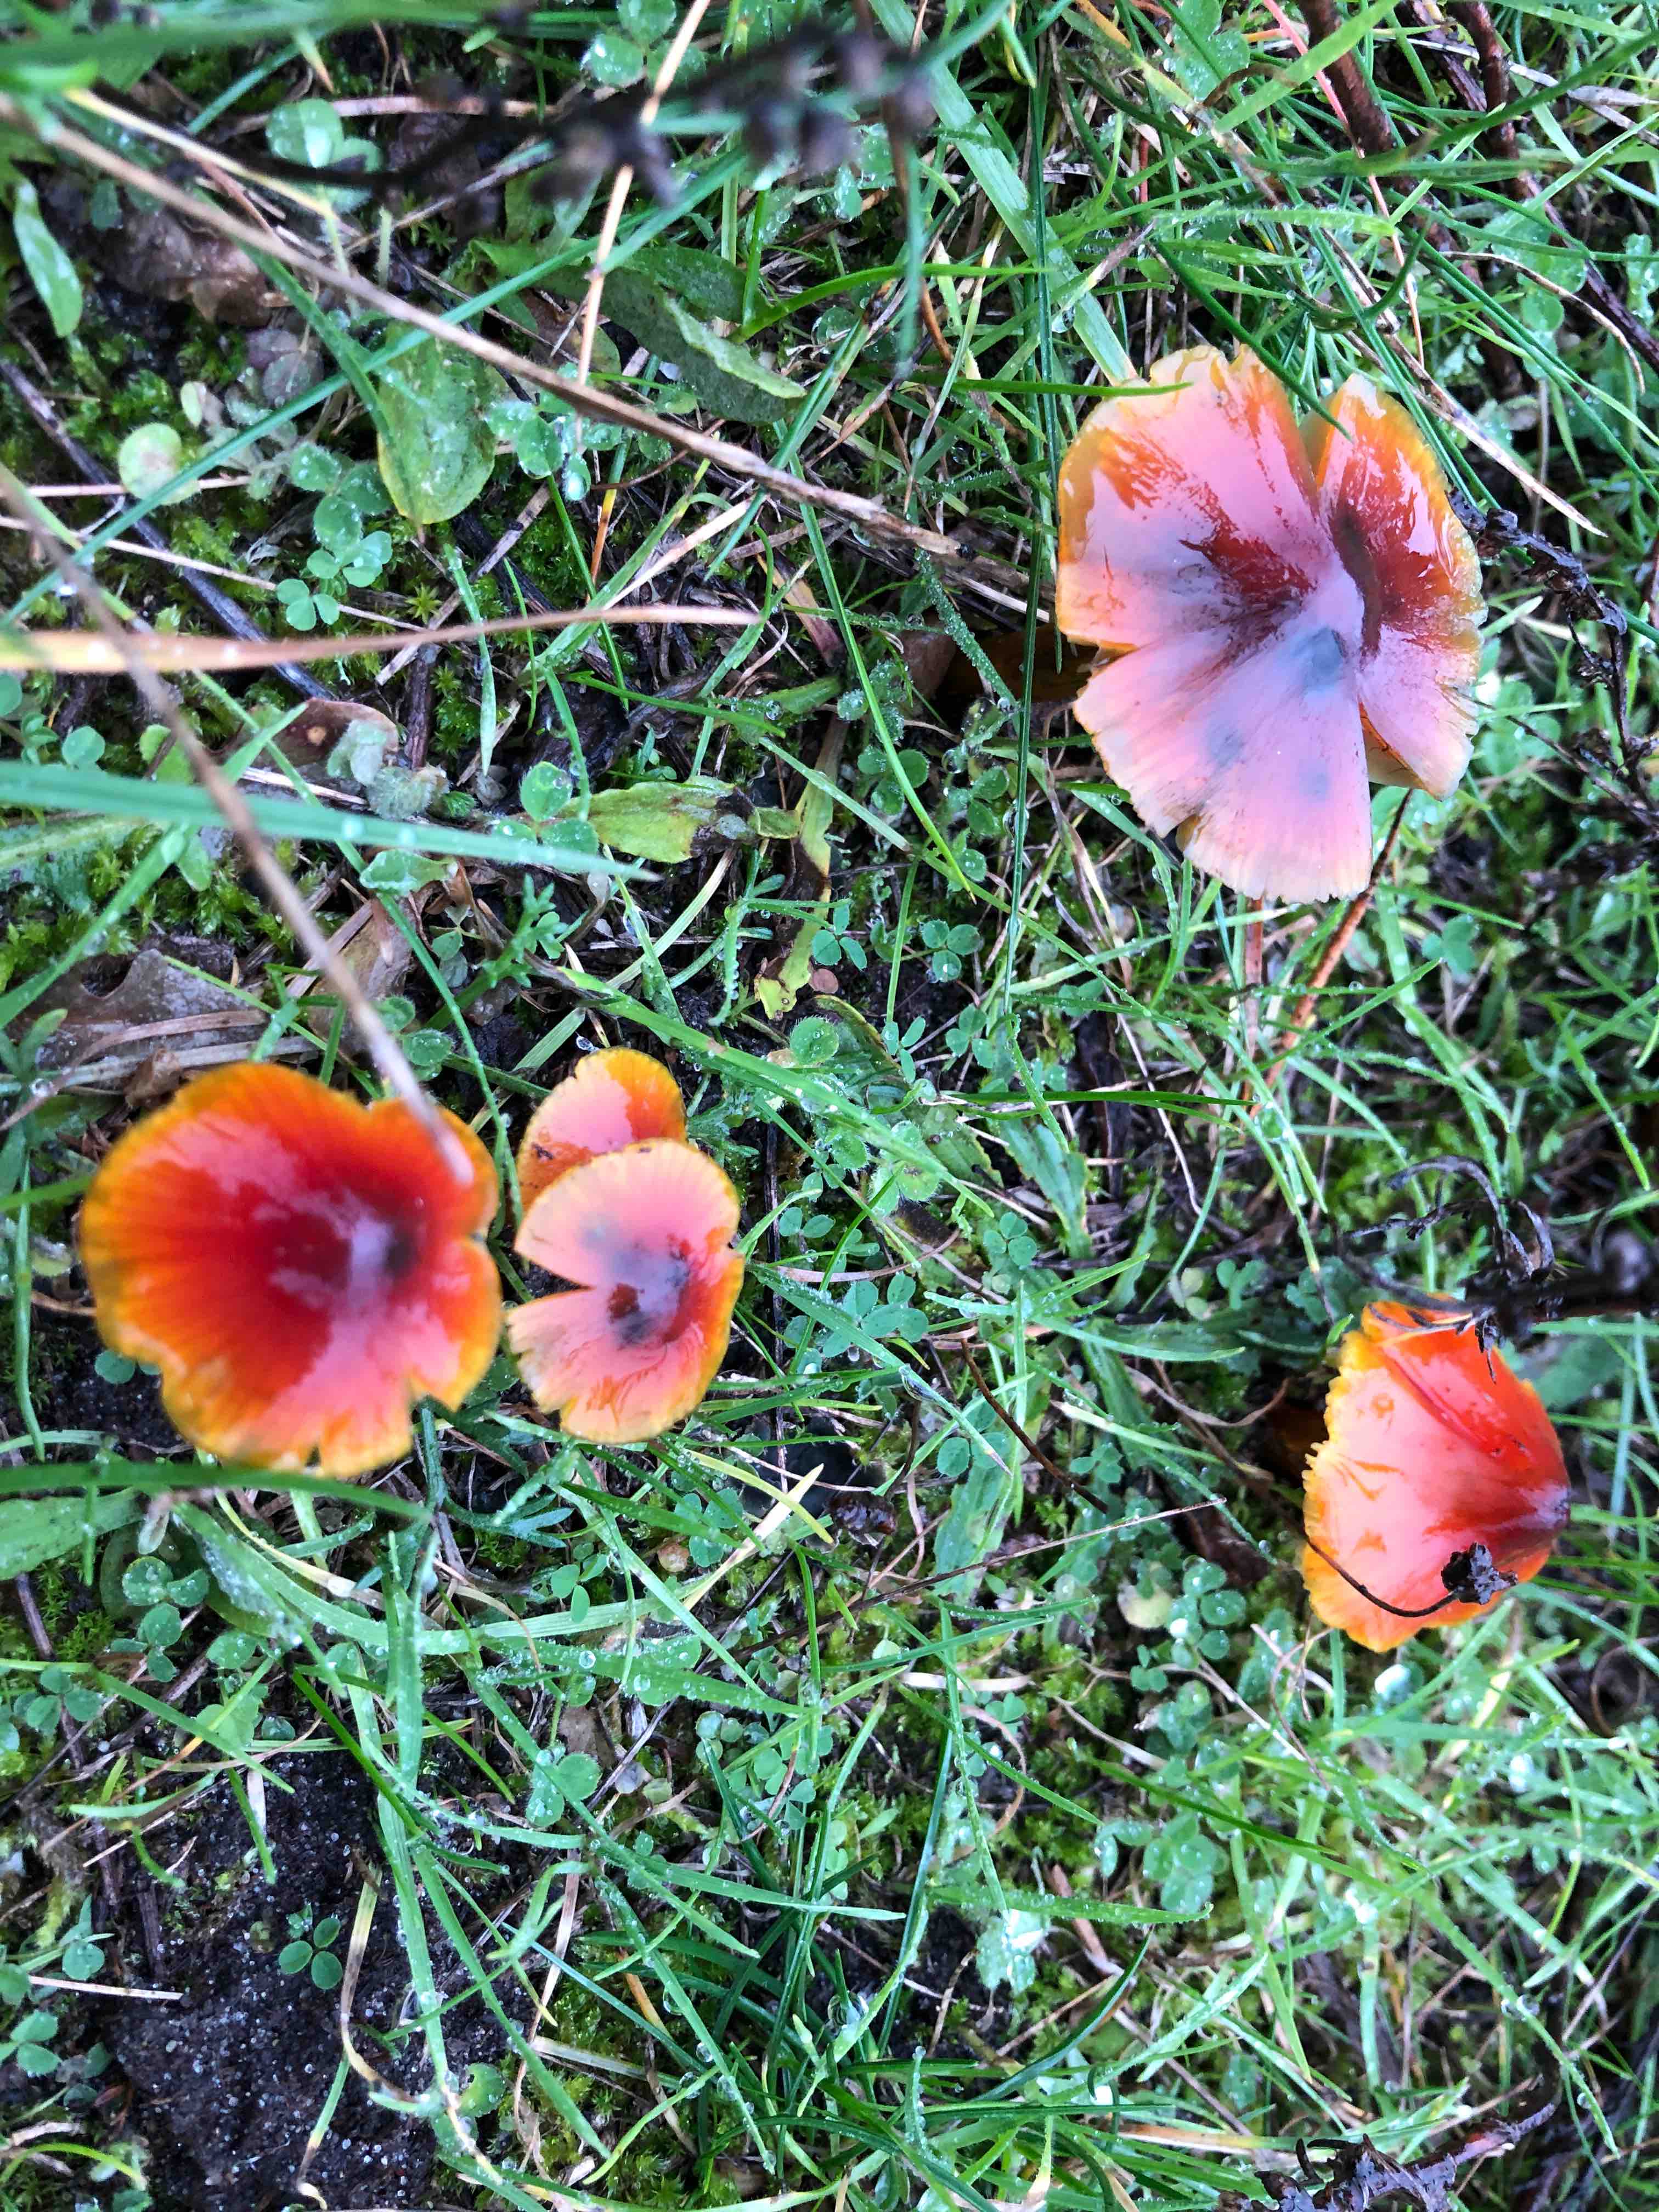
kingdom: Fungi
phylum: Basidiomycota
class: Agaricomycetes
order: Agaricales
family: Hygrophoraceae
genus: Hygrocybe
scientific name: Hygrocybe conica
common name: kegle-vokshat
